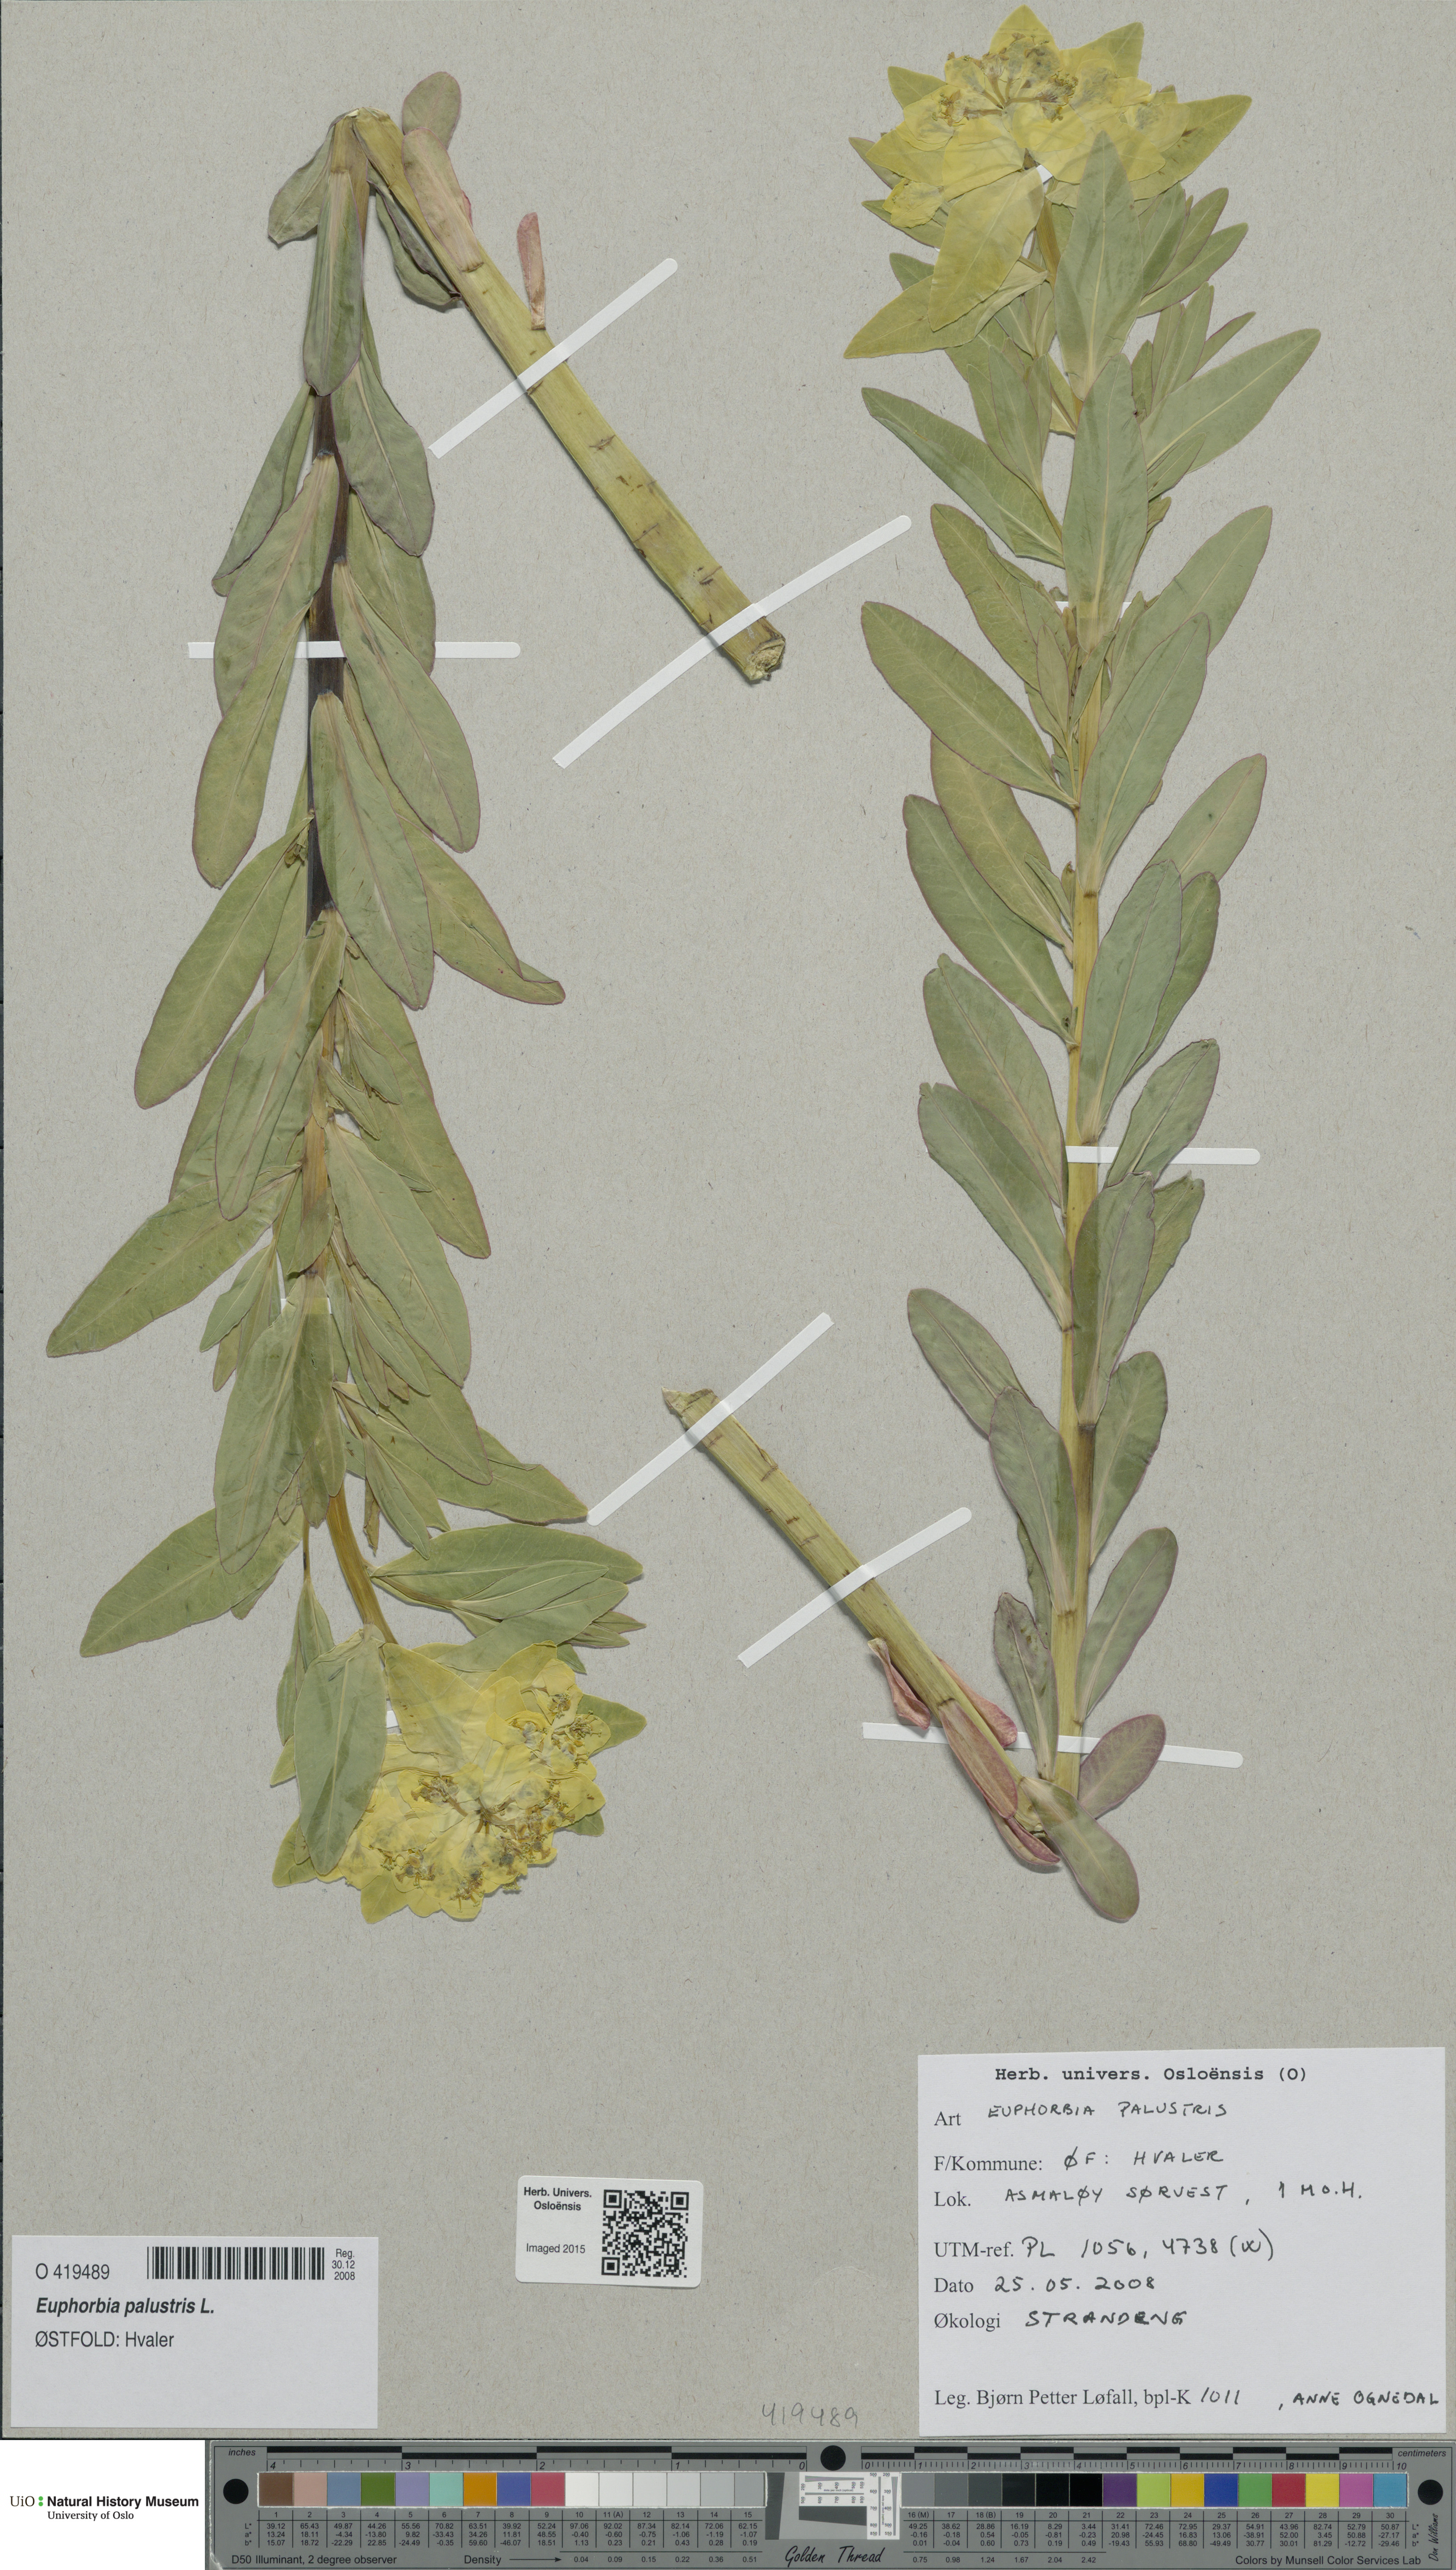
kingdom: Plantae
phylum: Tracheophyta
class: Magnoliopsida
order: Malpighiales
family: Euphorbiaceae
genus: Euphorbia
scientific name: Euphorbia palustris
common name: Marsh spurge
